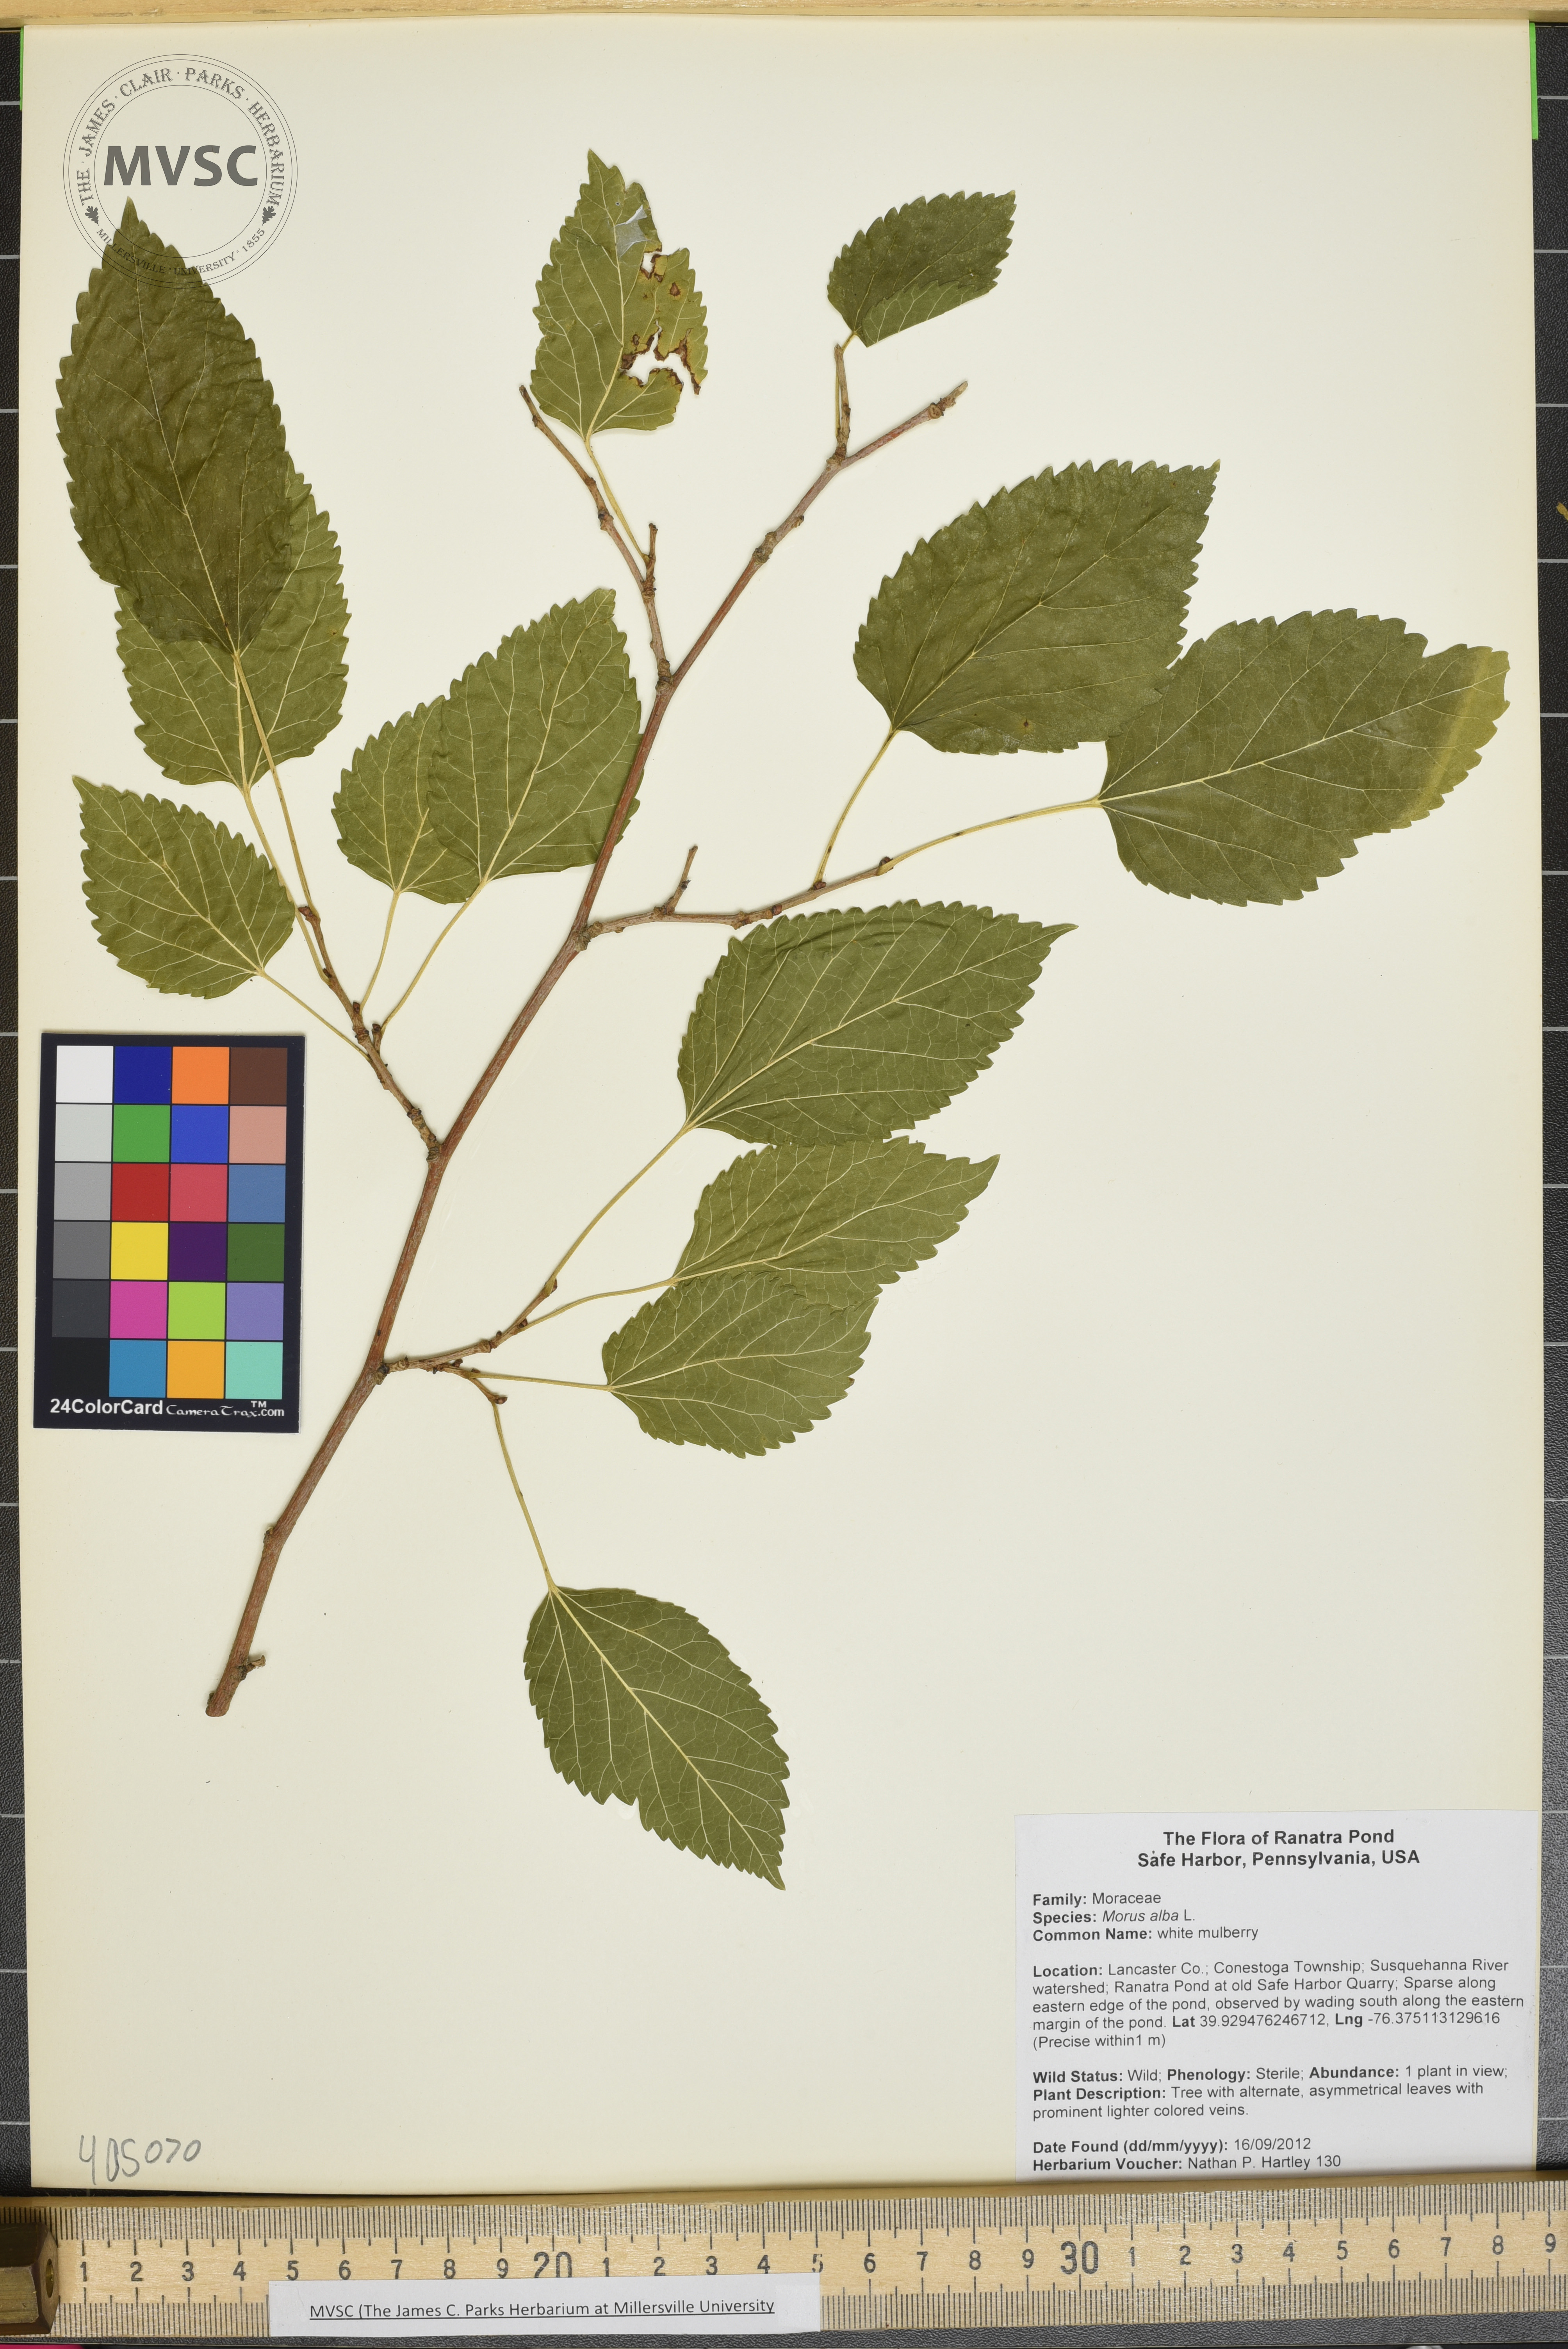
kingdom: Plantae
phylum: Tracheophyta
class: Magnoliopsida
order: Rosales
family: Moraceae
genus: Morus
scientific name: Morus alba
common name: white mulberry
